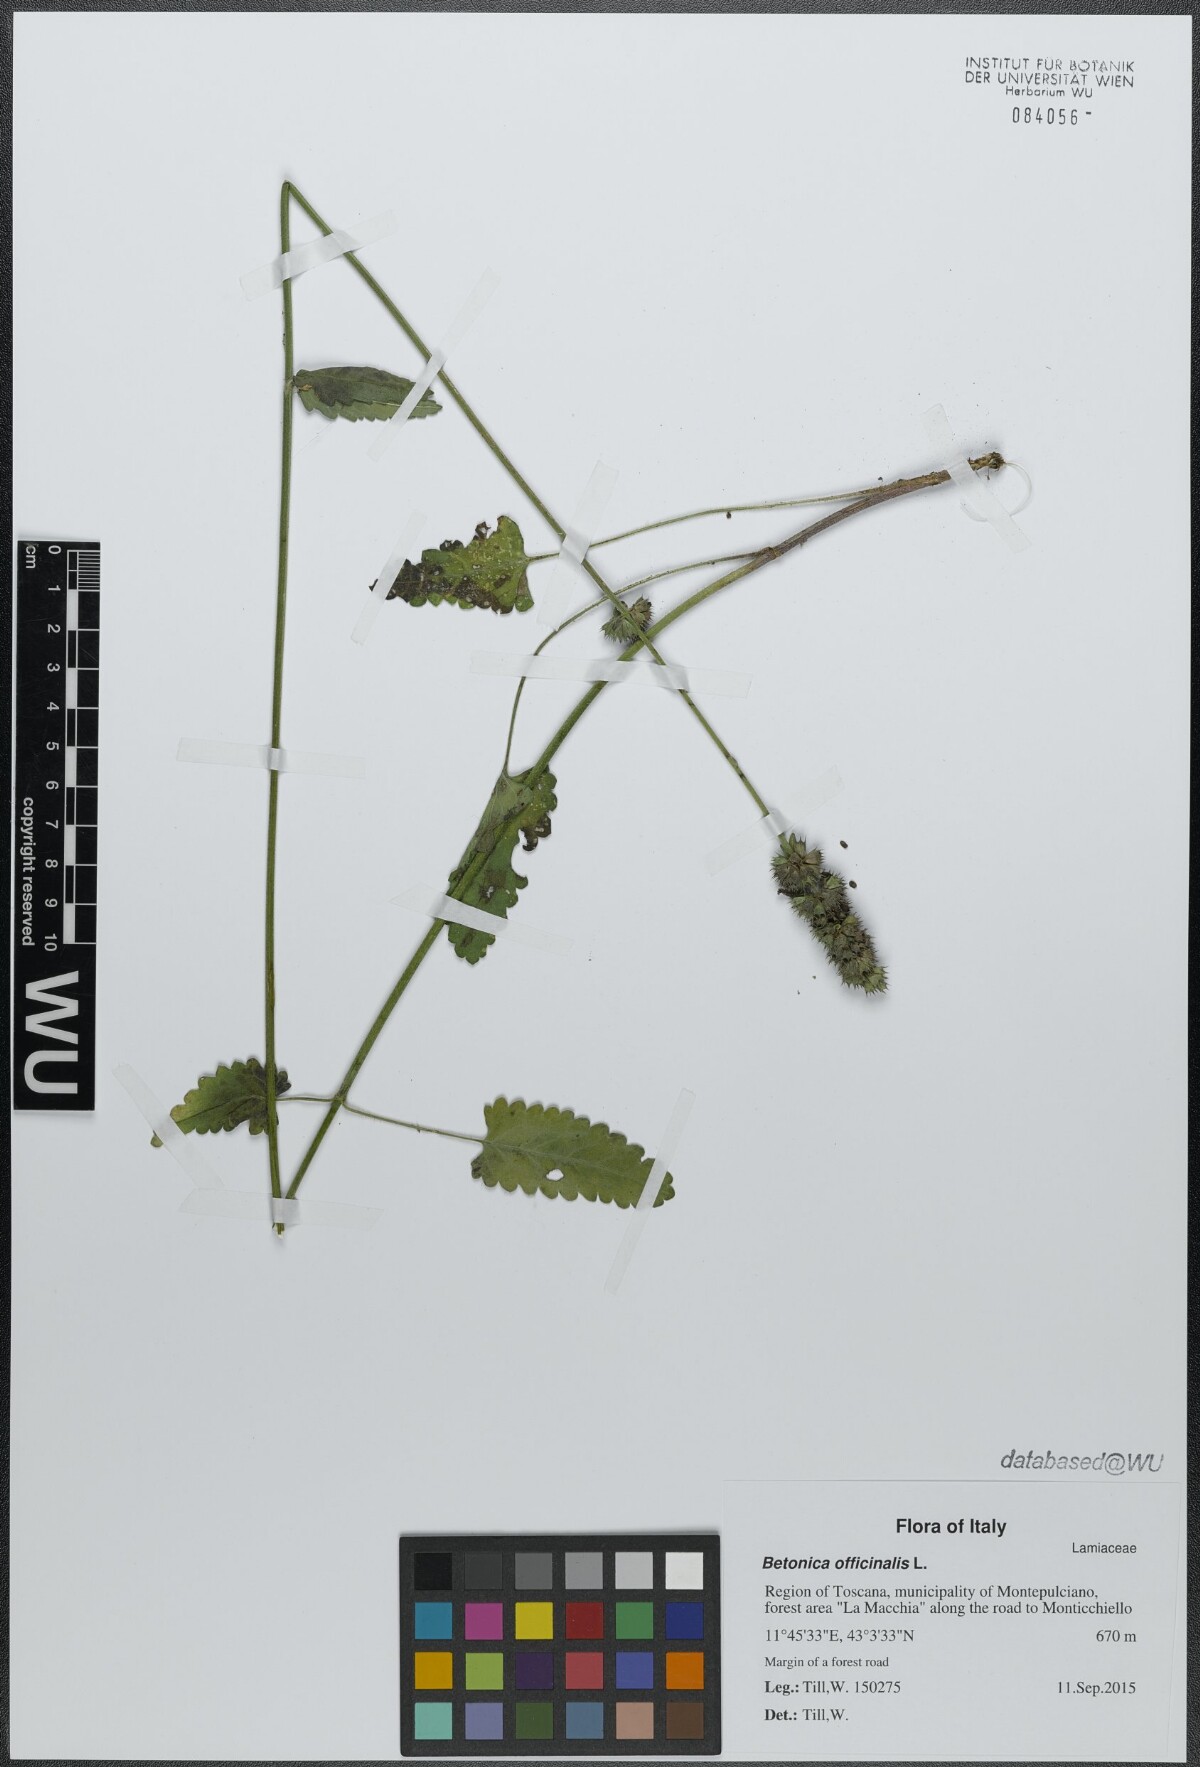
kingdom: Plantae
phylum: Tracheophyta
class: Magnoliopsida
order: Lamiales
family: Lamiaceae
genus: Betonica
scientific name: Betonica officinalis
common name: Bishop's-wort
